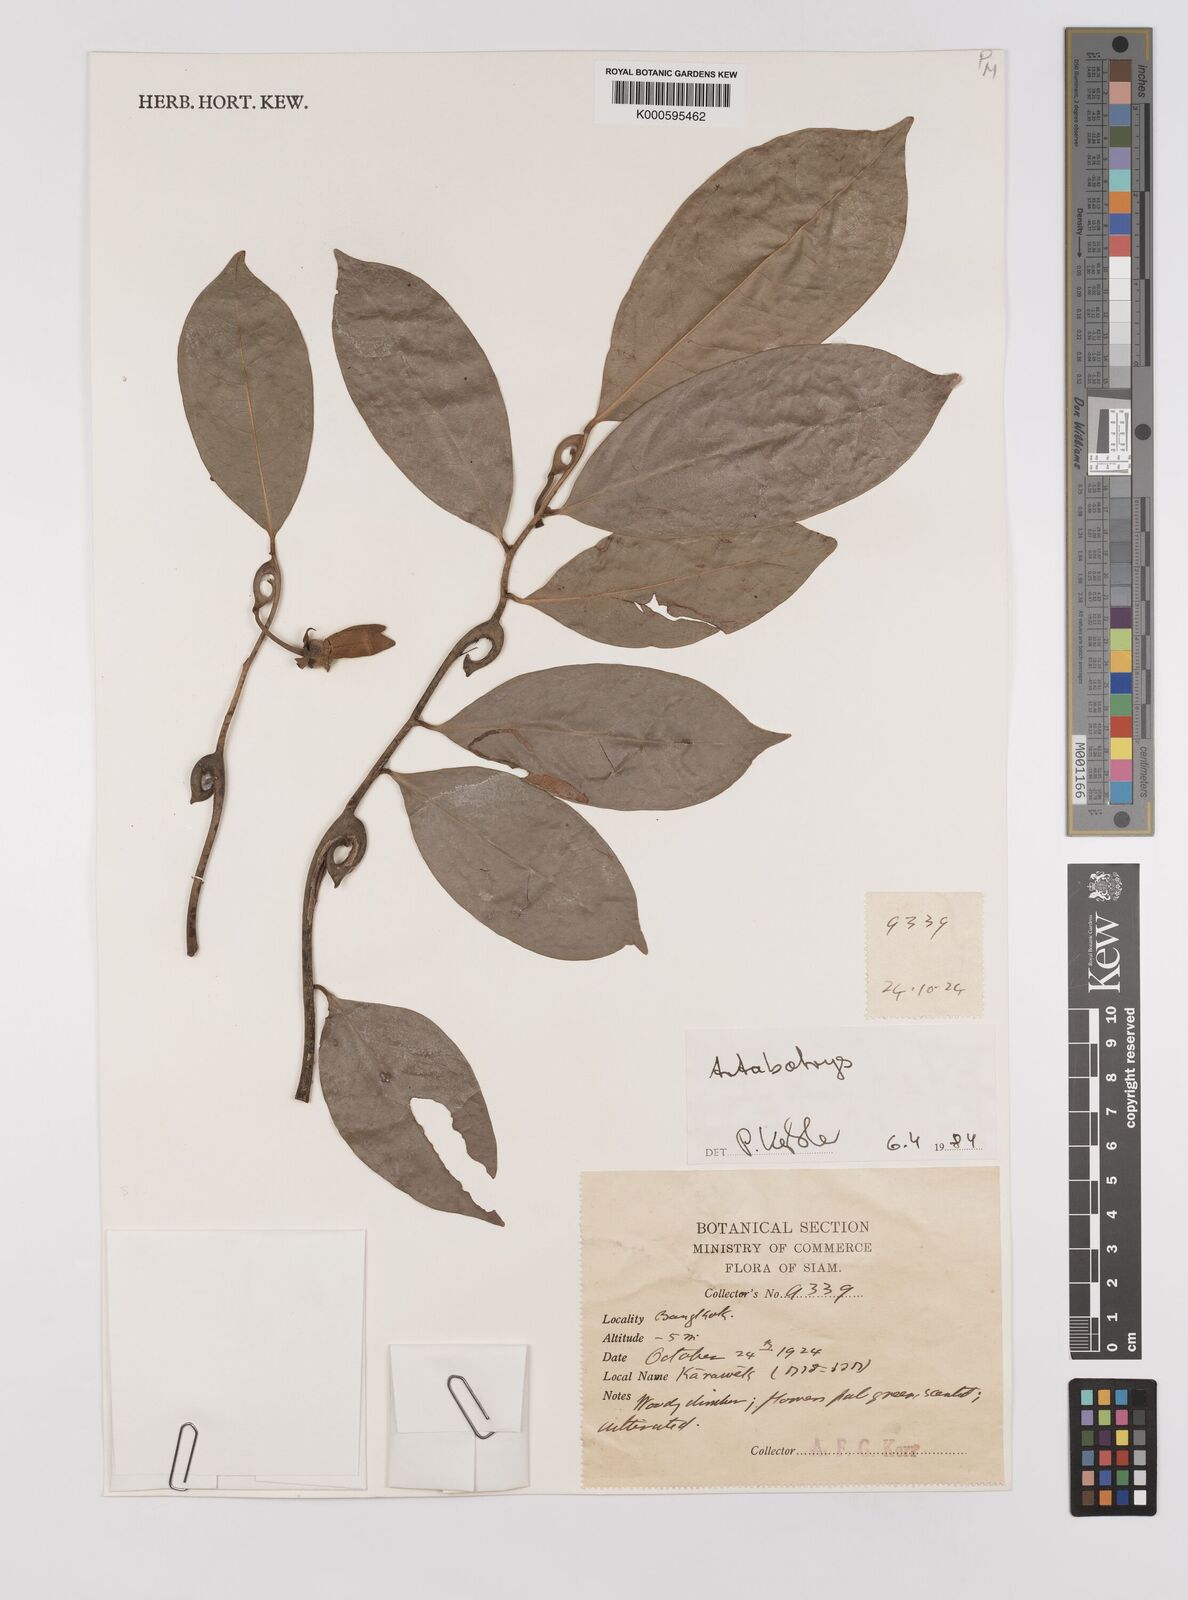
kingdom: Plantae
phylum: Tracheophyta
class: Magnoliopsida
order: Magnoliales
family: Annonaceae
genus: Artabotrys
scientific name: Artabotrys siamensis
